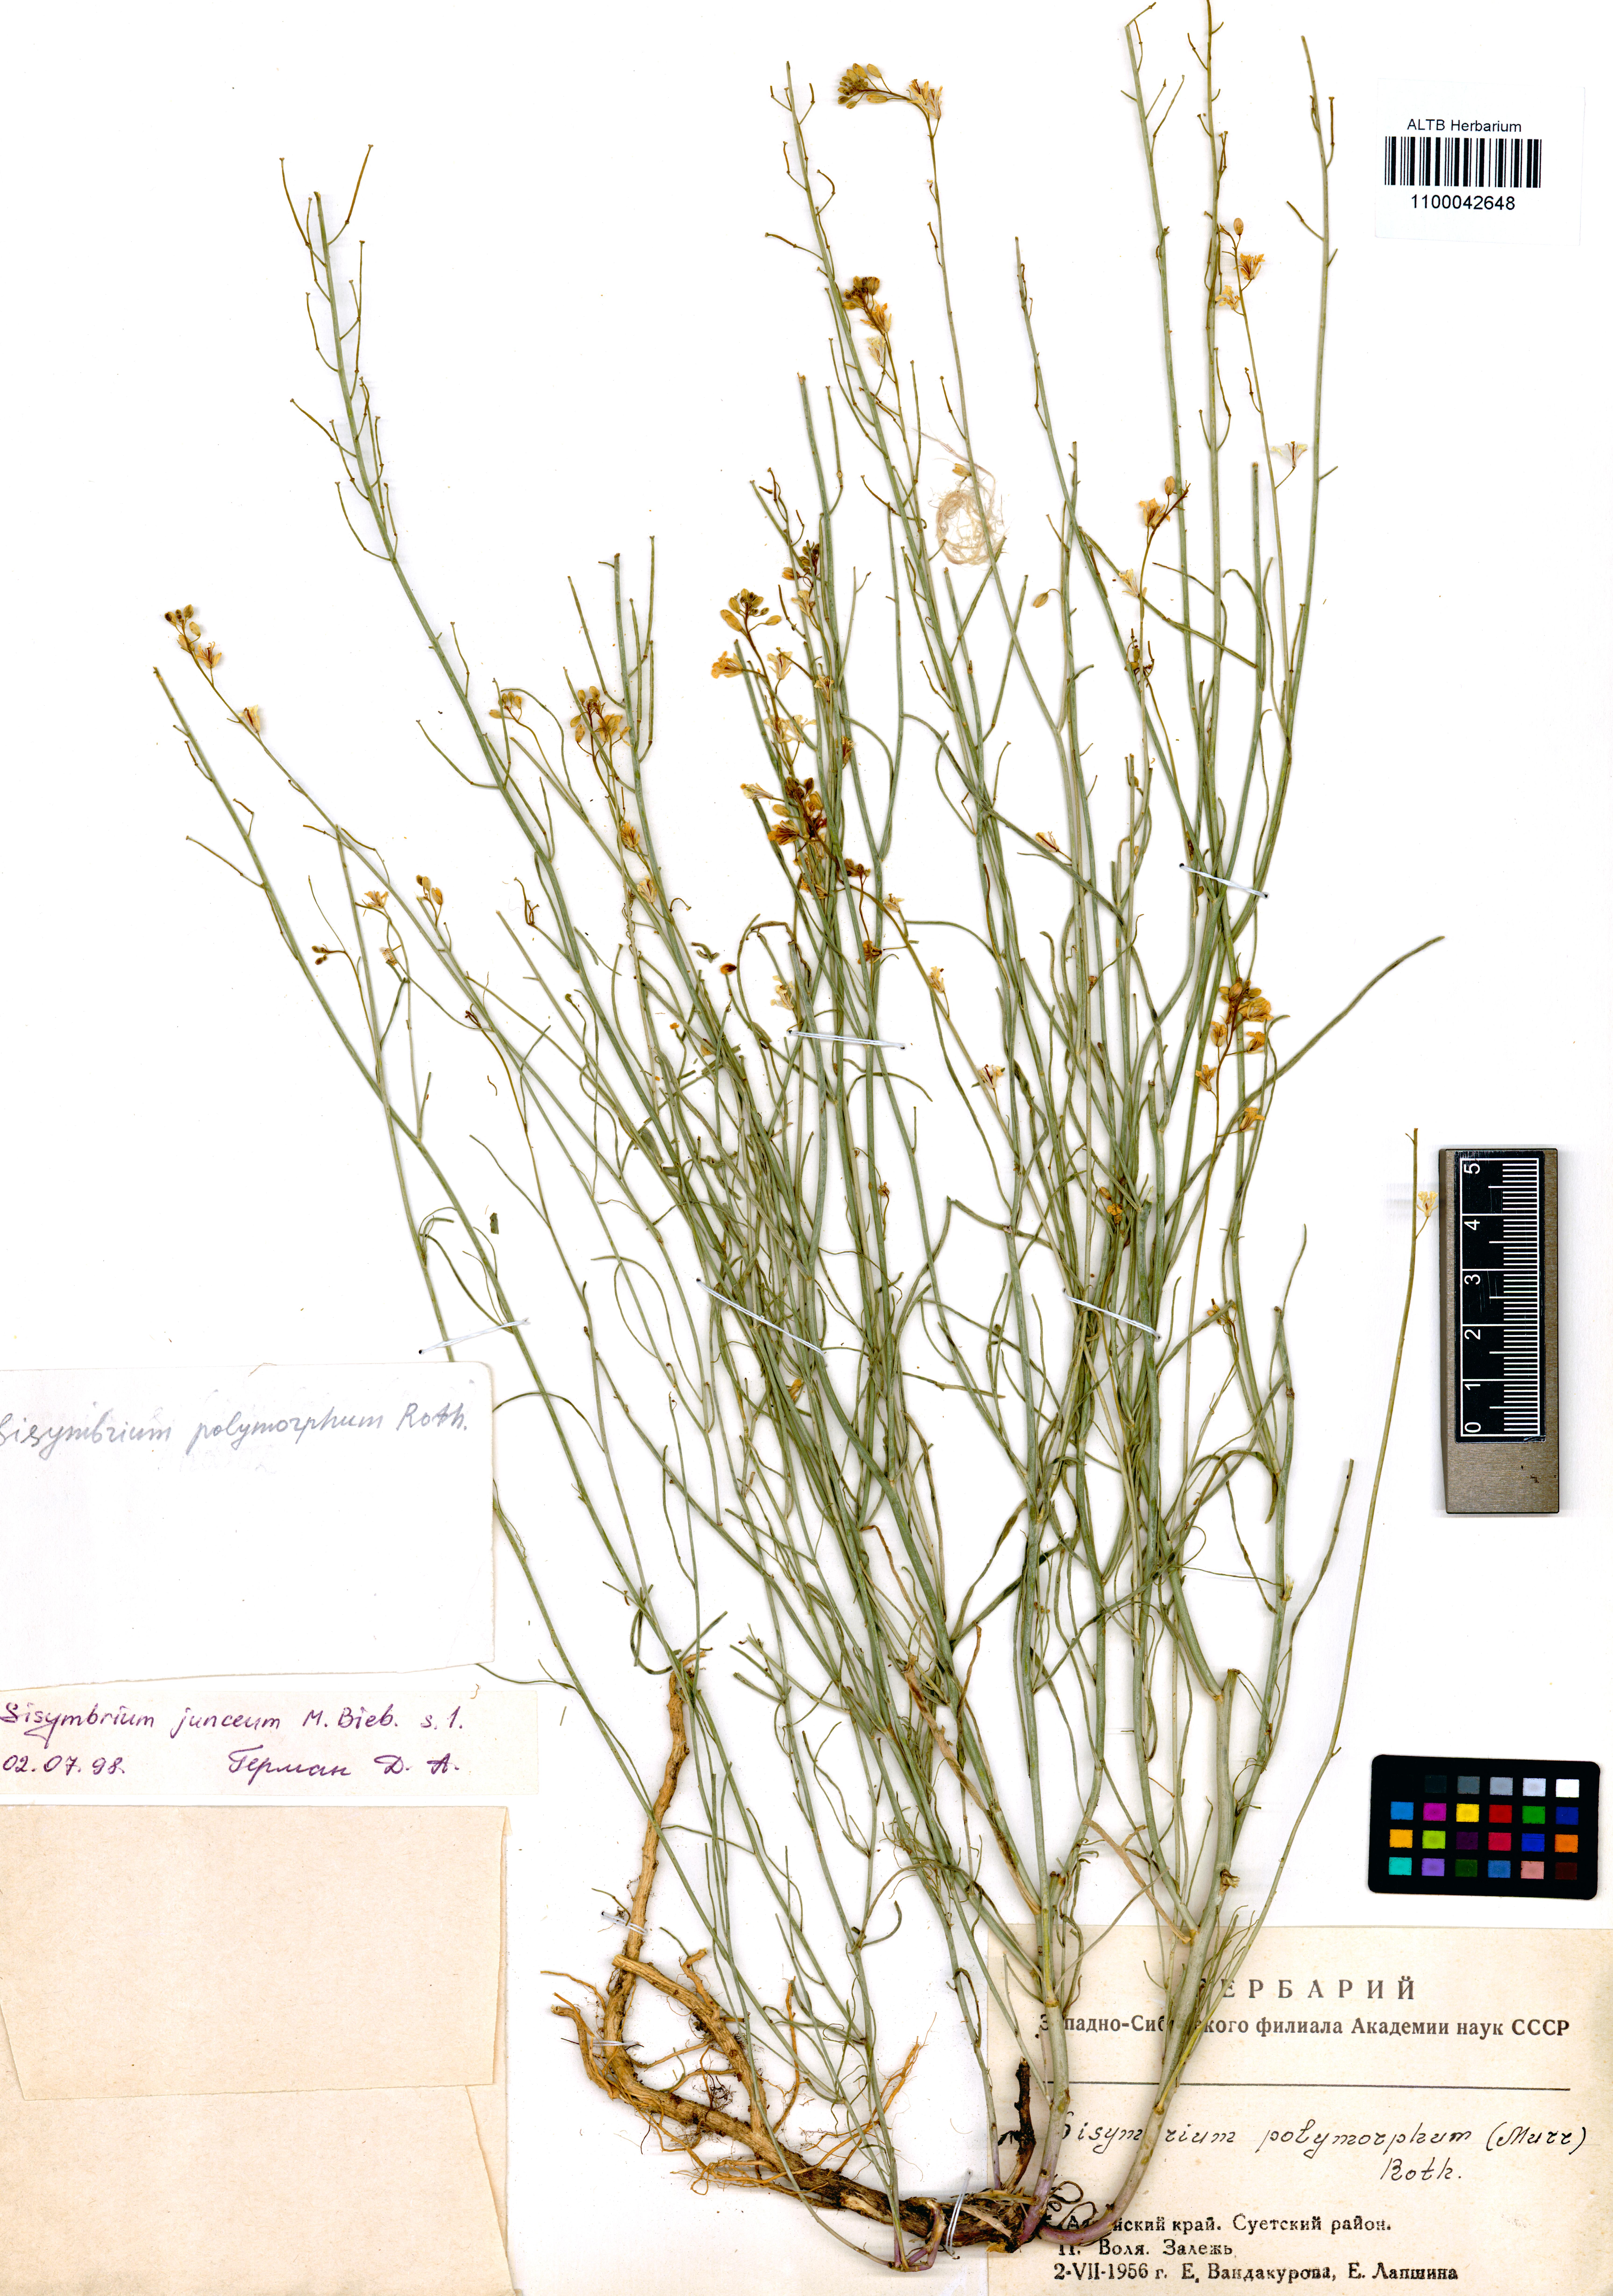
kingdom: Plantae
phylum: Tracheophyta
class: Magnoliopsida
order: Brassicales
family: Brassicaceae
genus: Sisymbrium
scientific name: Sisymbrium polymorphum
